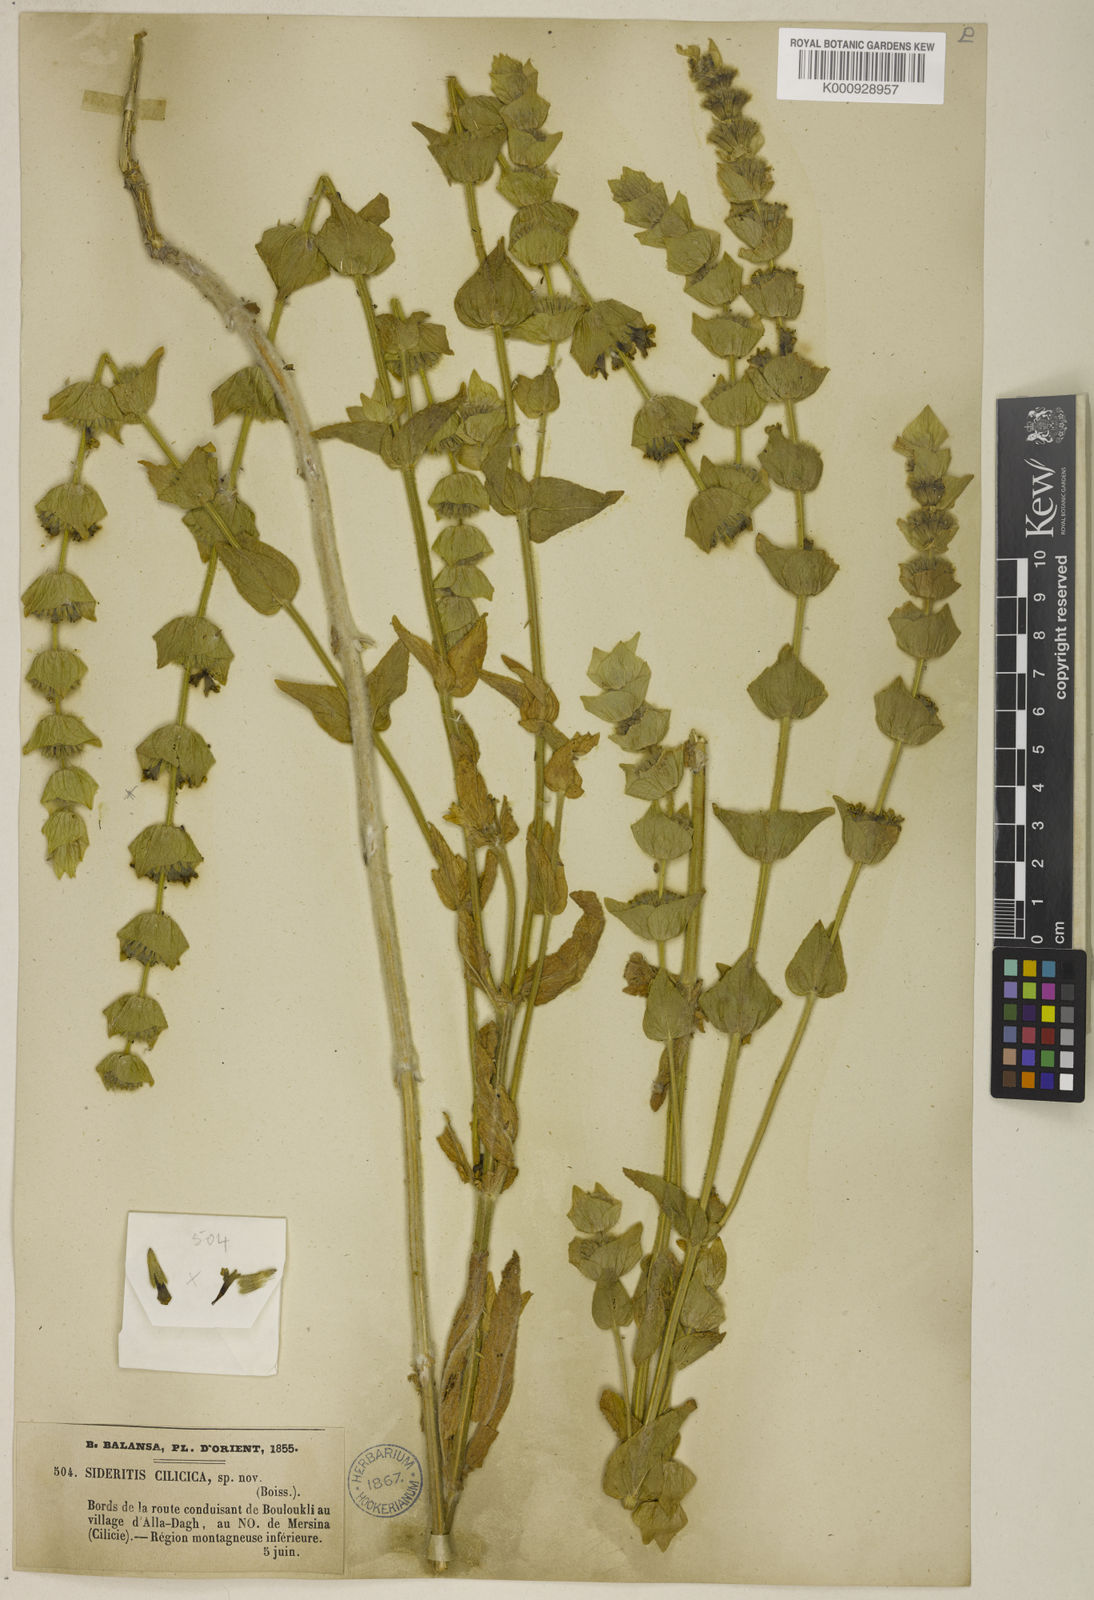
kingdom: Plantae
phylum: Tracheophyta
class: Magnoliopsida
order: Lamiales
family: Lamiaceae
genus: Sideritis
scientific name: Sideritis cilicica
